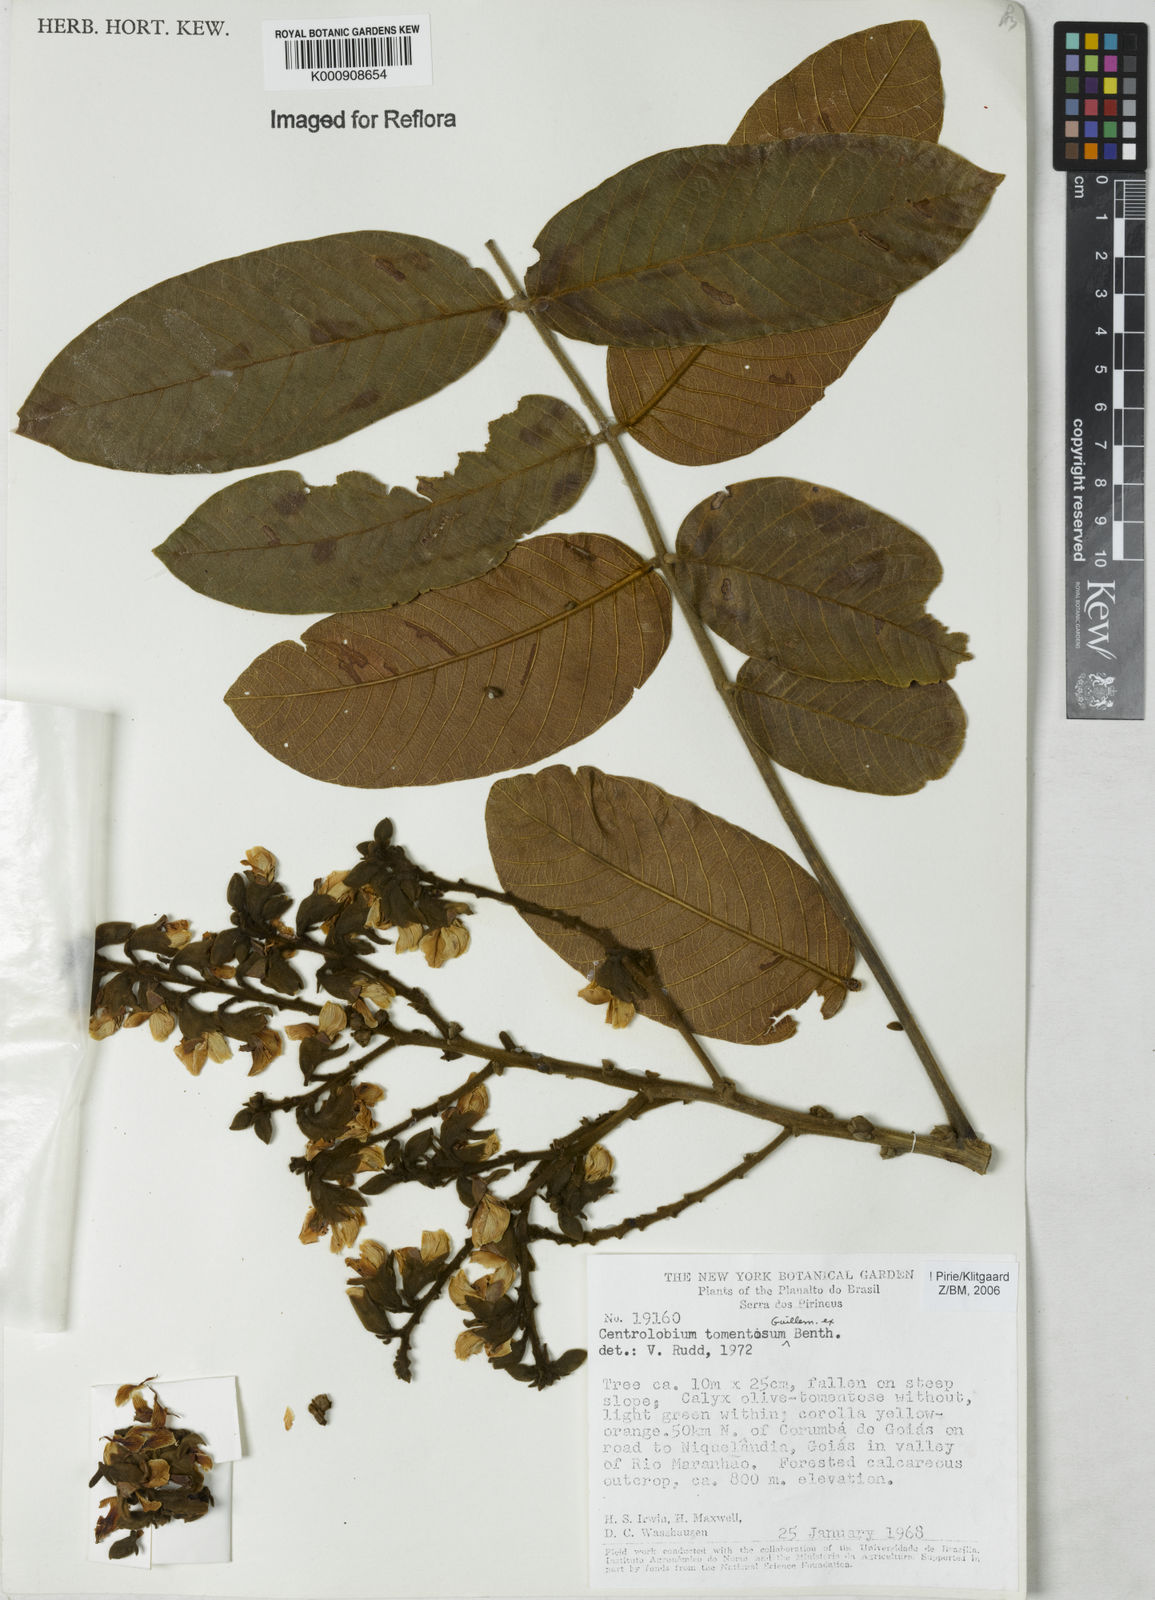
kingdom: Plantae
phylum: Tracheophyta
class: Magnoliopsida
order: Fabales
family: Fabaceae
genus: Centrolobium
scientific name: Centrolobium tomentosum
